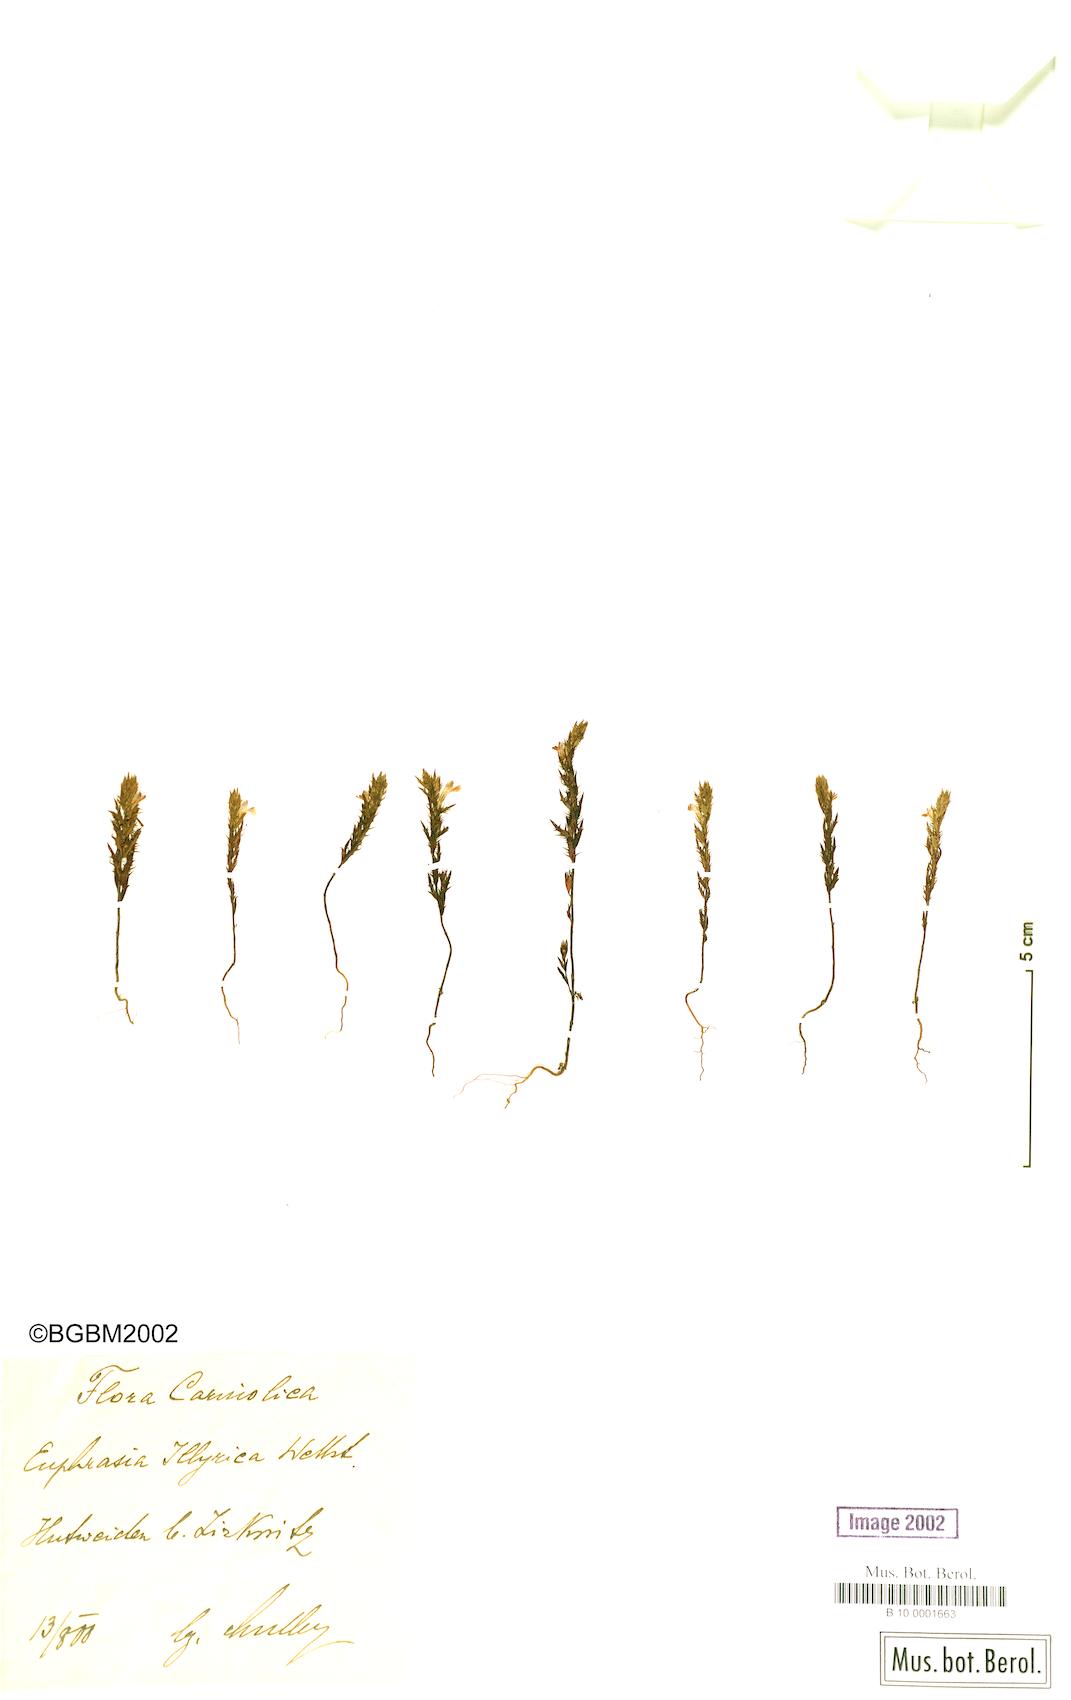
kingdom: Plantae
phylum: Tracheophyta
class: Magnoliopsida
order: Lamiales
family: Orobanchaceae
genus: Euphrasia
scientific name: Euphrasia illyrica
